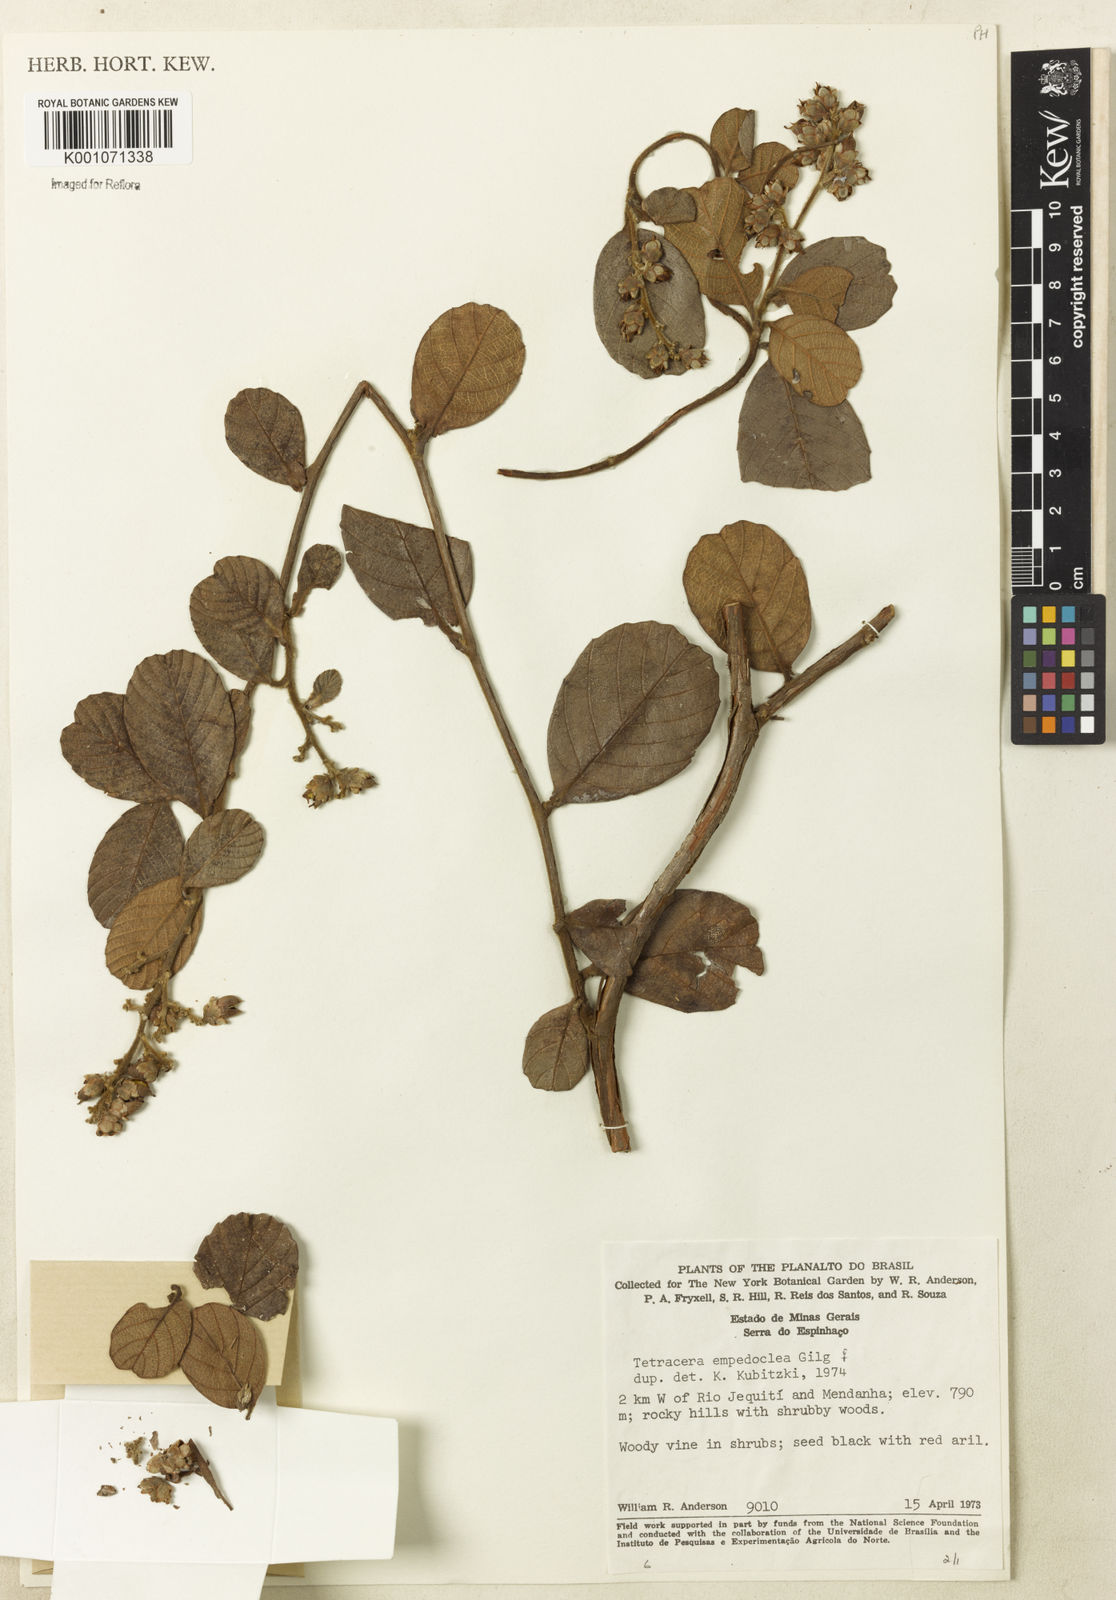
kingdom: Plantae
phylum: Tracheophyta
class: Magnoliopsida
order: Dilleniales
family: Dilleniaceae
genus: Tetracera
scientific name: Tetracera empedoclea
